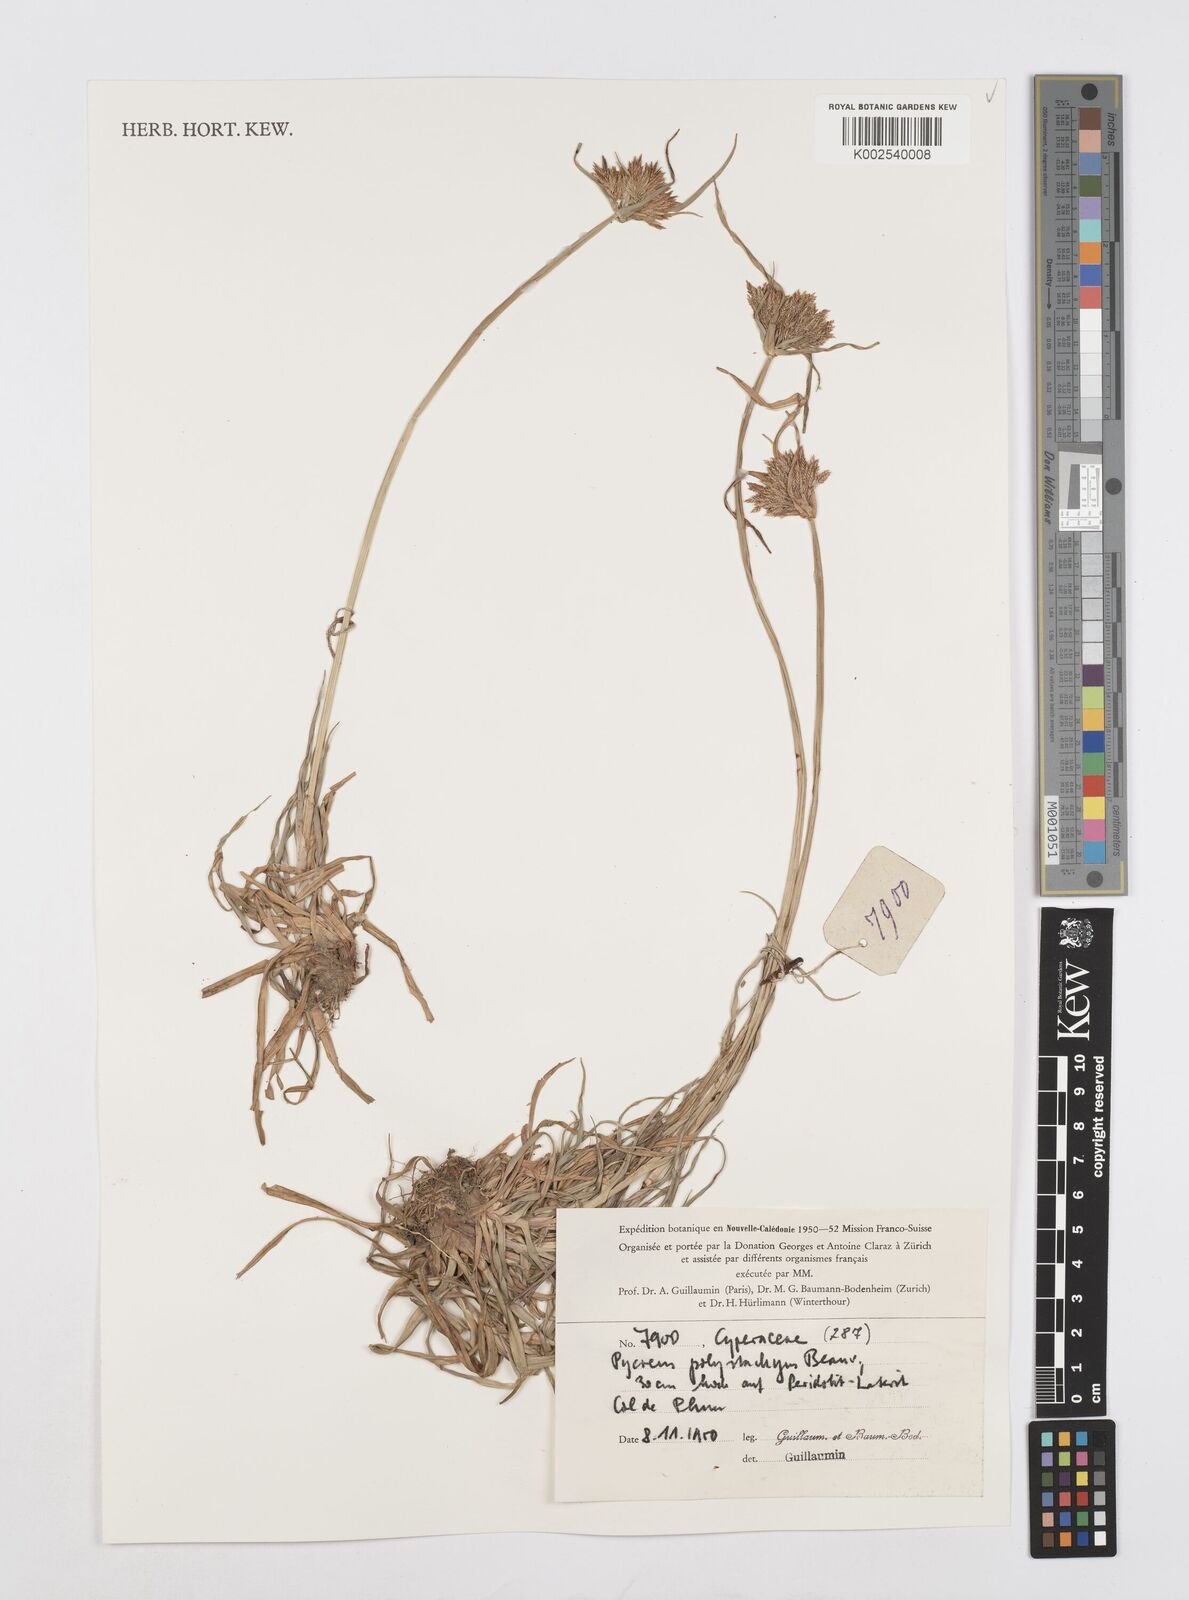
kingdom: Plantae
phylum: Tracheophyta
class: Liliopsida
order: Poales
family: Cyperaceae
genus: Cyperus
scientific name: Cyperus polystachyos
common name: Bunchy flat sedge
